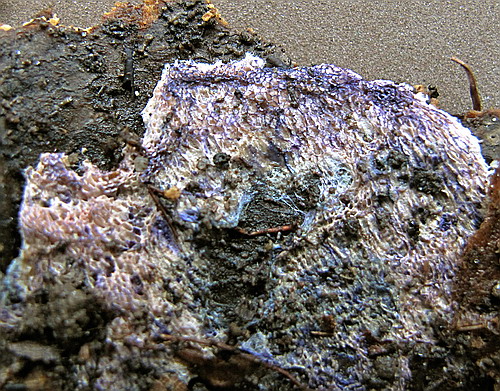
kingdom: Fungi
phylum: Basidiomycota
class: Agaricomycetes
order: Polyporales
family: Irpicaceae
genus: Ceriporia
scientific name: Ceriporia excelsa
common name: lilla voksporesvamp
